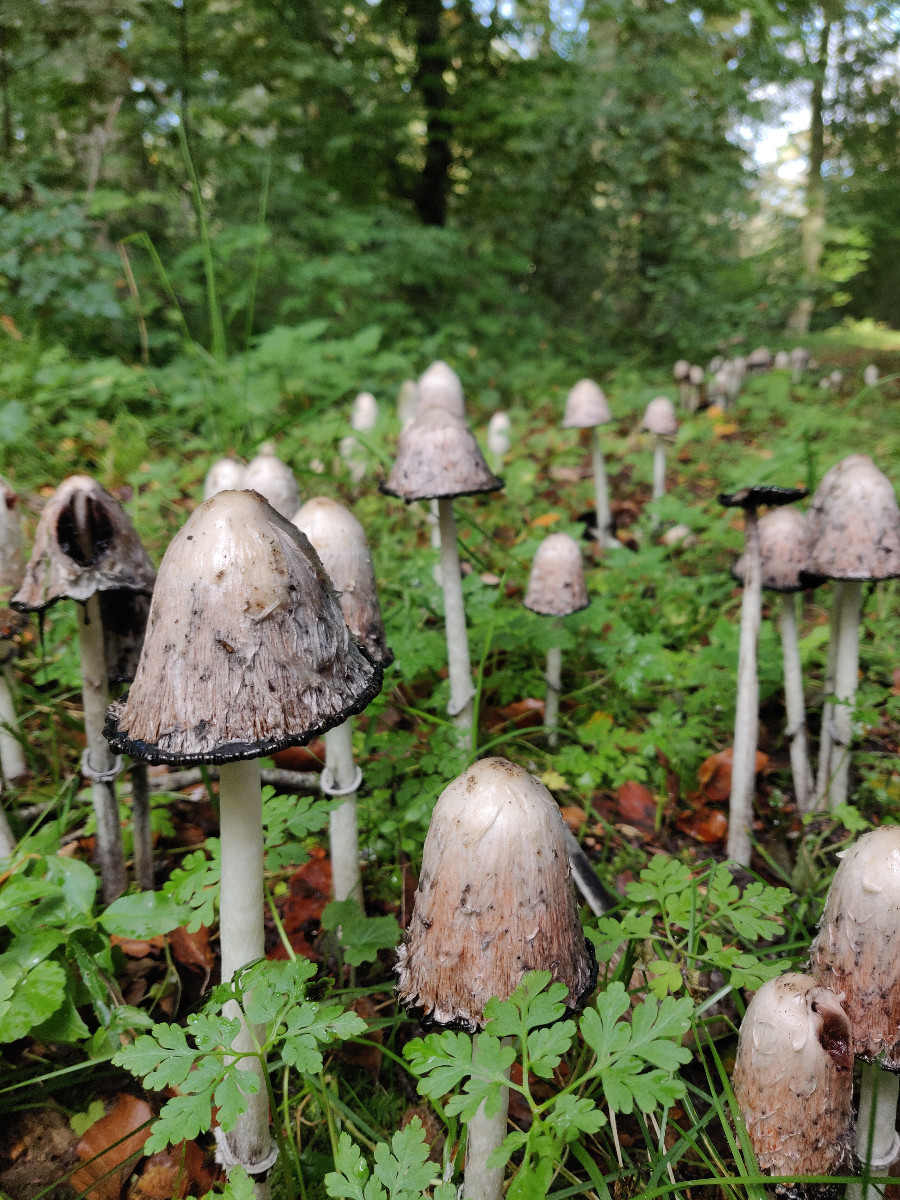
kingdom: Fungi
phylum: Basidiomycota
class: Agaricomycetes
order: Agaricales
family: Agaricaceae
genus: Coprinus
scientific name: Coprinus comatus
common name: stor parykhat
